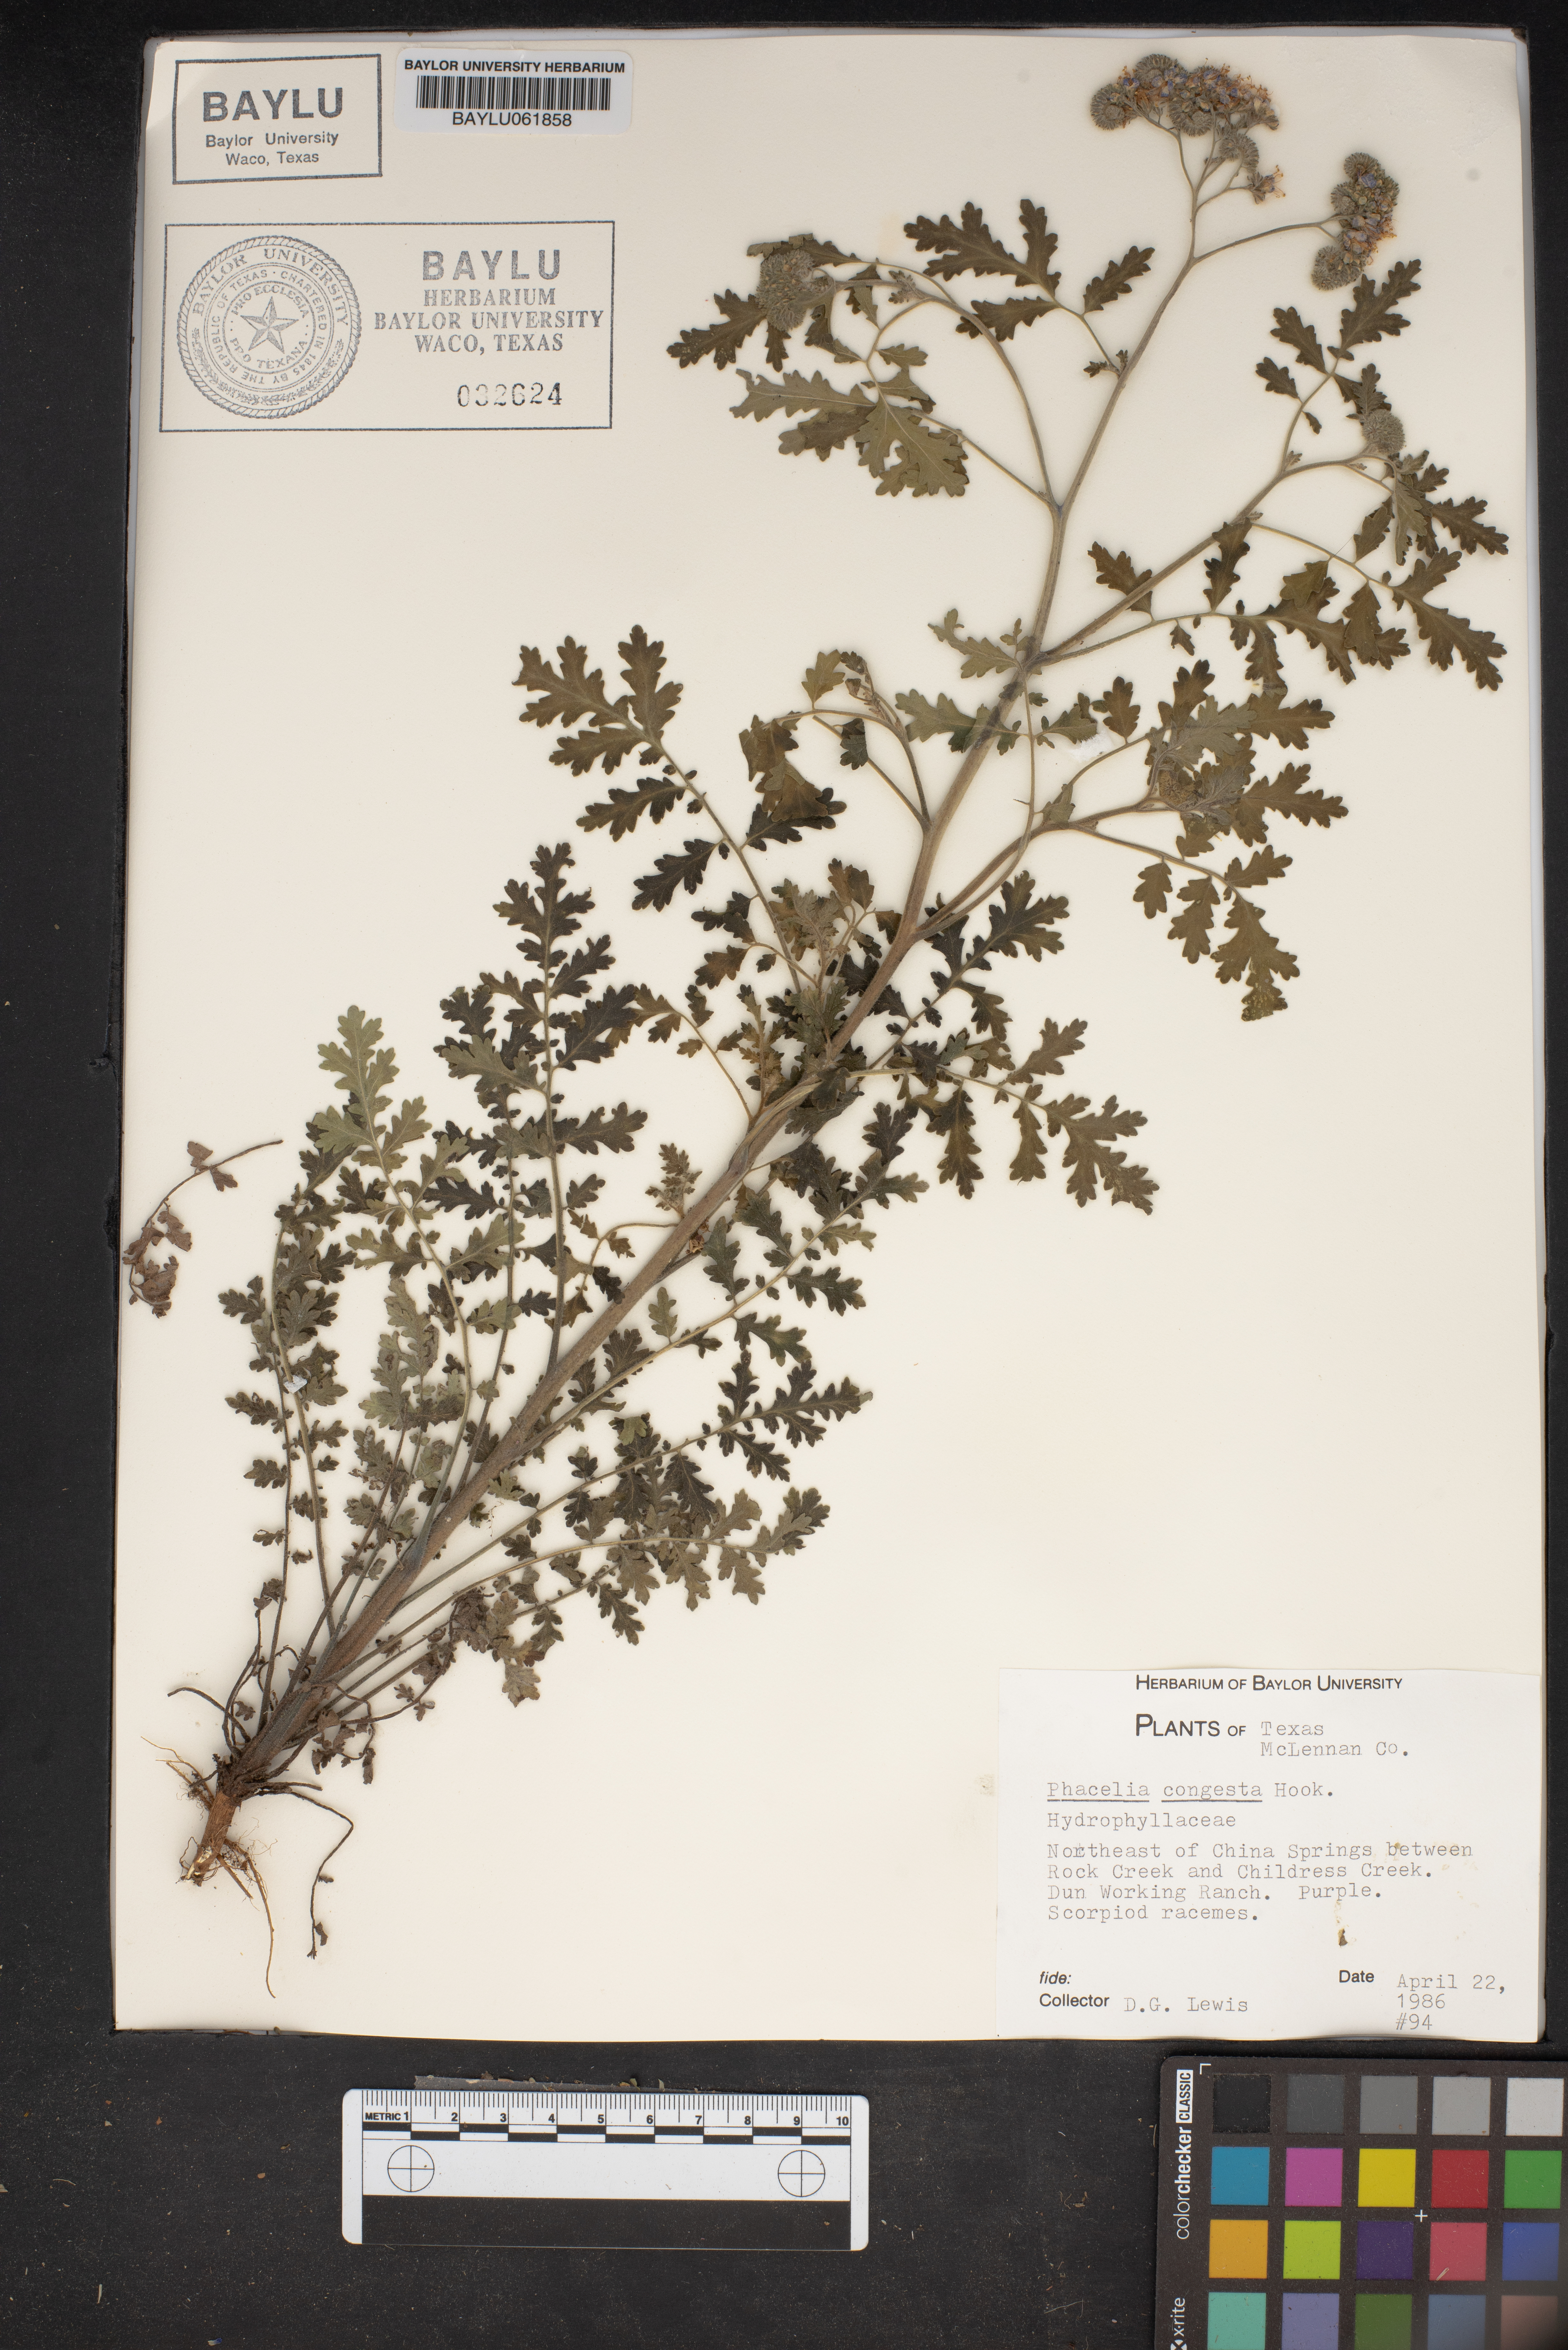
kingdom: Plantae
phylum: Tracheophyta
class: Magnoliopsida
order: Boraginales
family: Hydrophyllaceae
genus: Phacelia
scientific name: Phacelia congesta
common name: Blue curls
